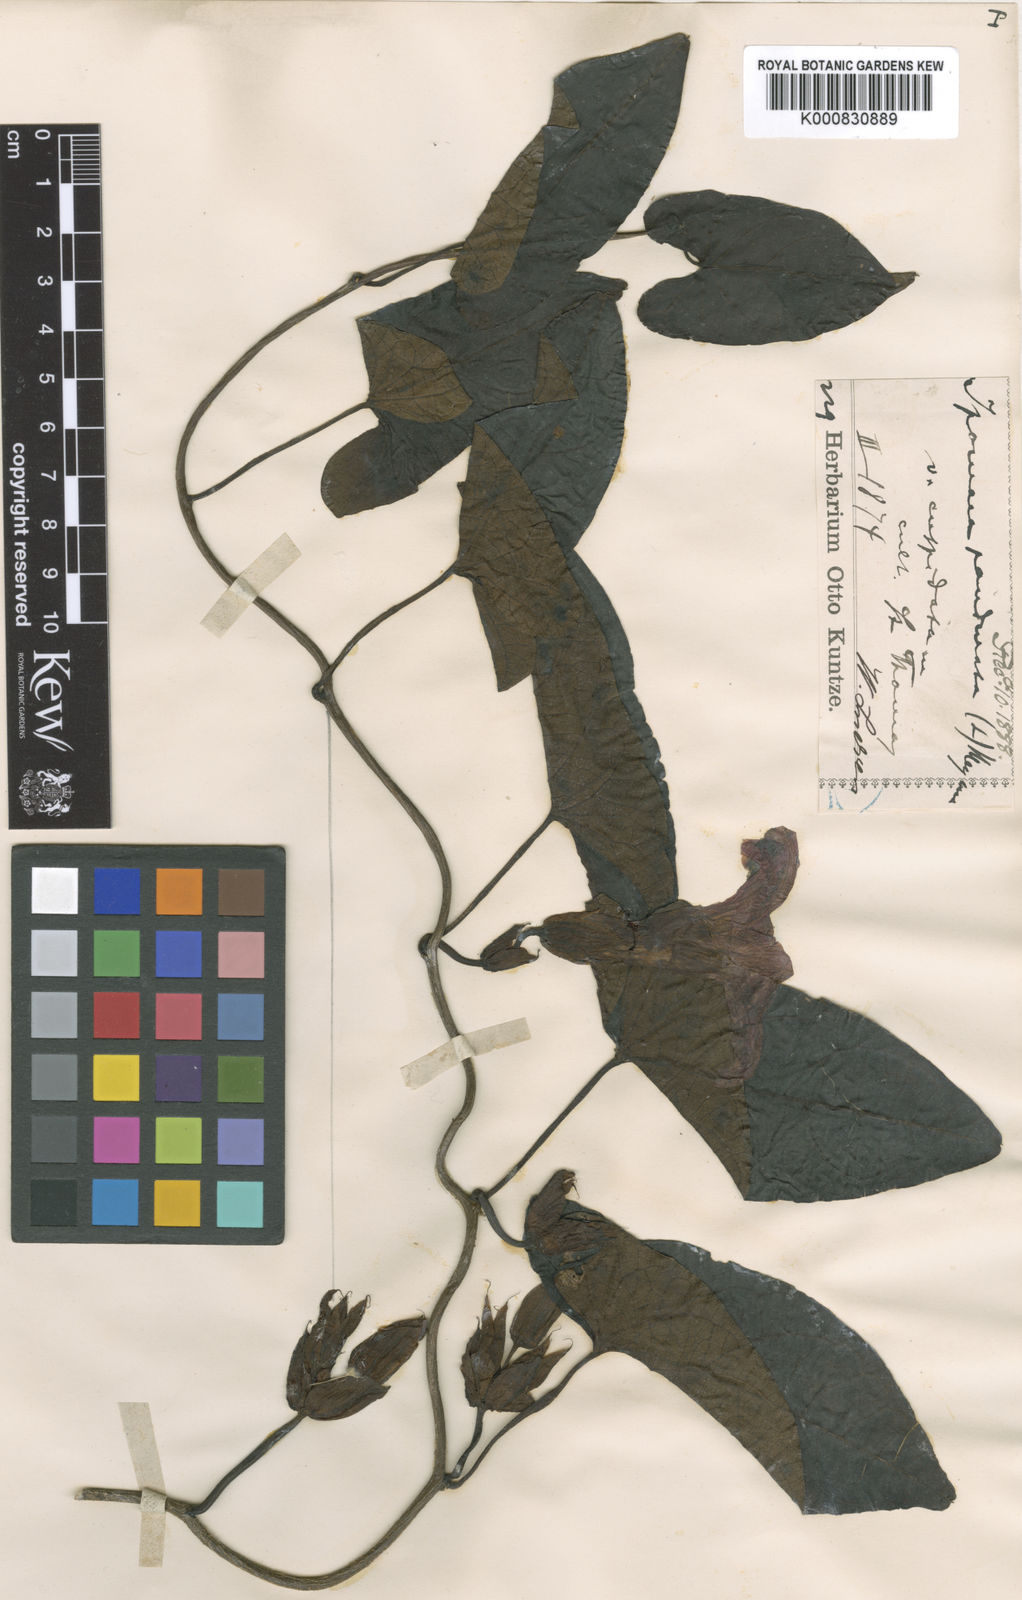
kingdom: Plantae
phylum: Tracheophyta
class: Magnoliopsida
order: Solanales
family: Convolvulaceae
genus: Ipomoea
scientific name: Ipomoea pandurata
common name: Man-of-the-earth
